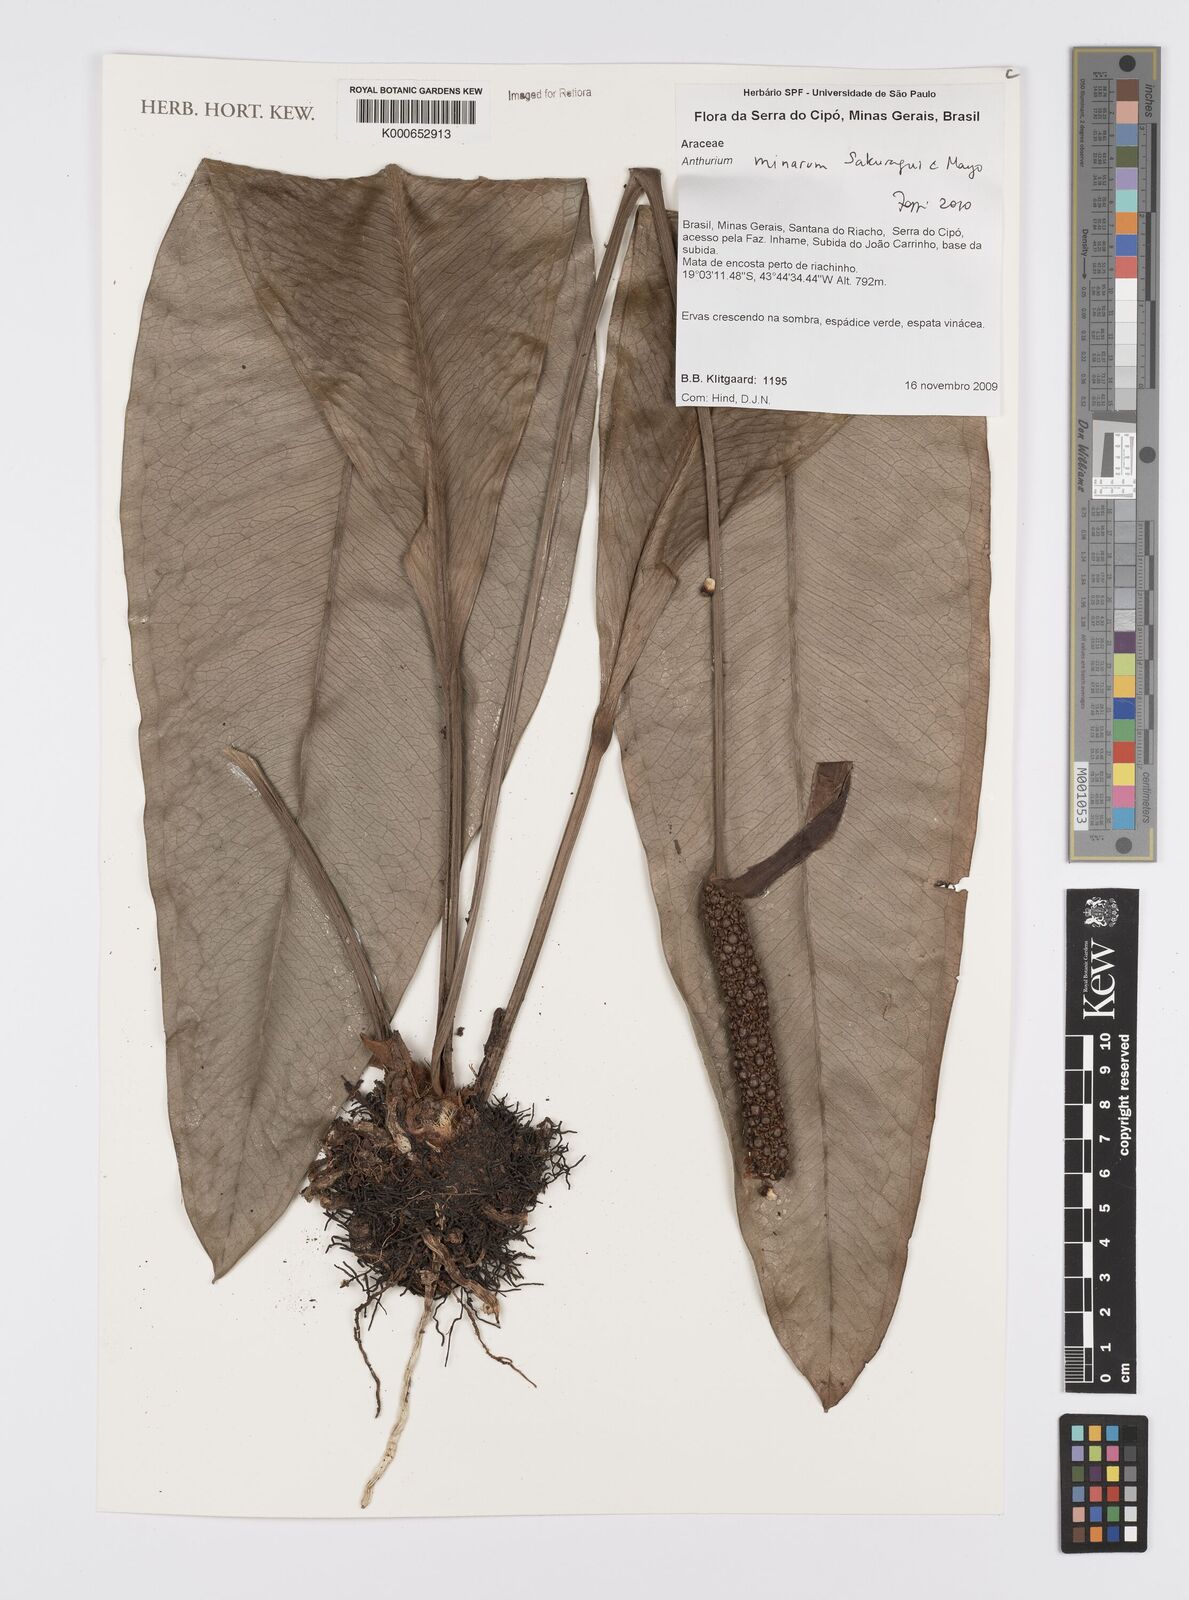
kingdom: Plantae
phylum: Tracheophyta
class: Liliopsida
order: Alismatales
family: Araceae
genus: Anthurium
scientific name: Anthurium minarum
